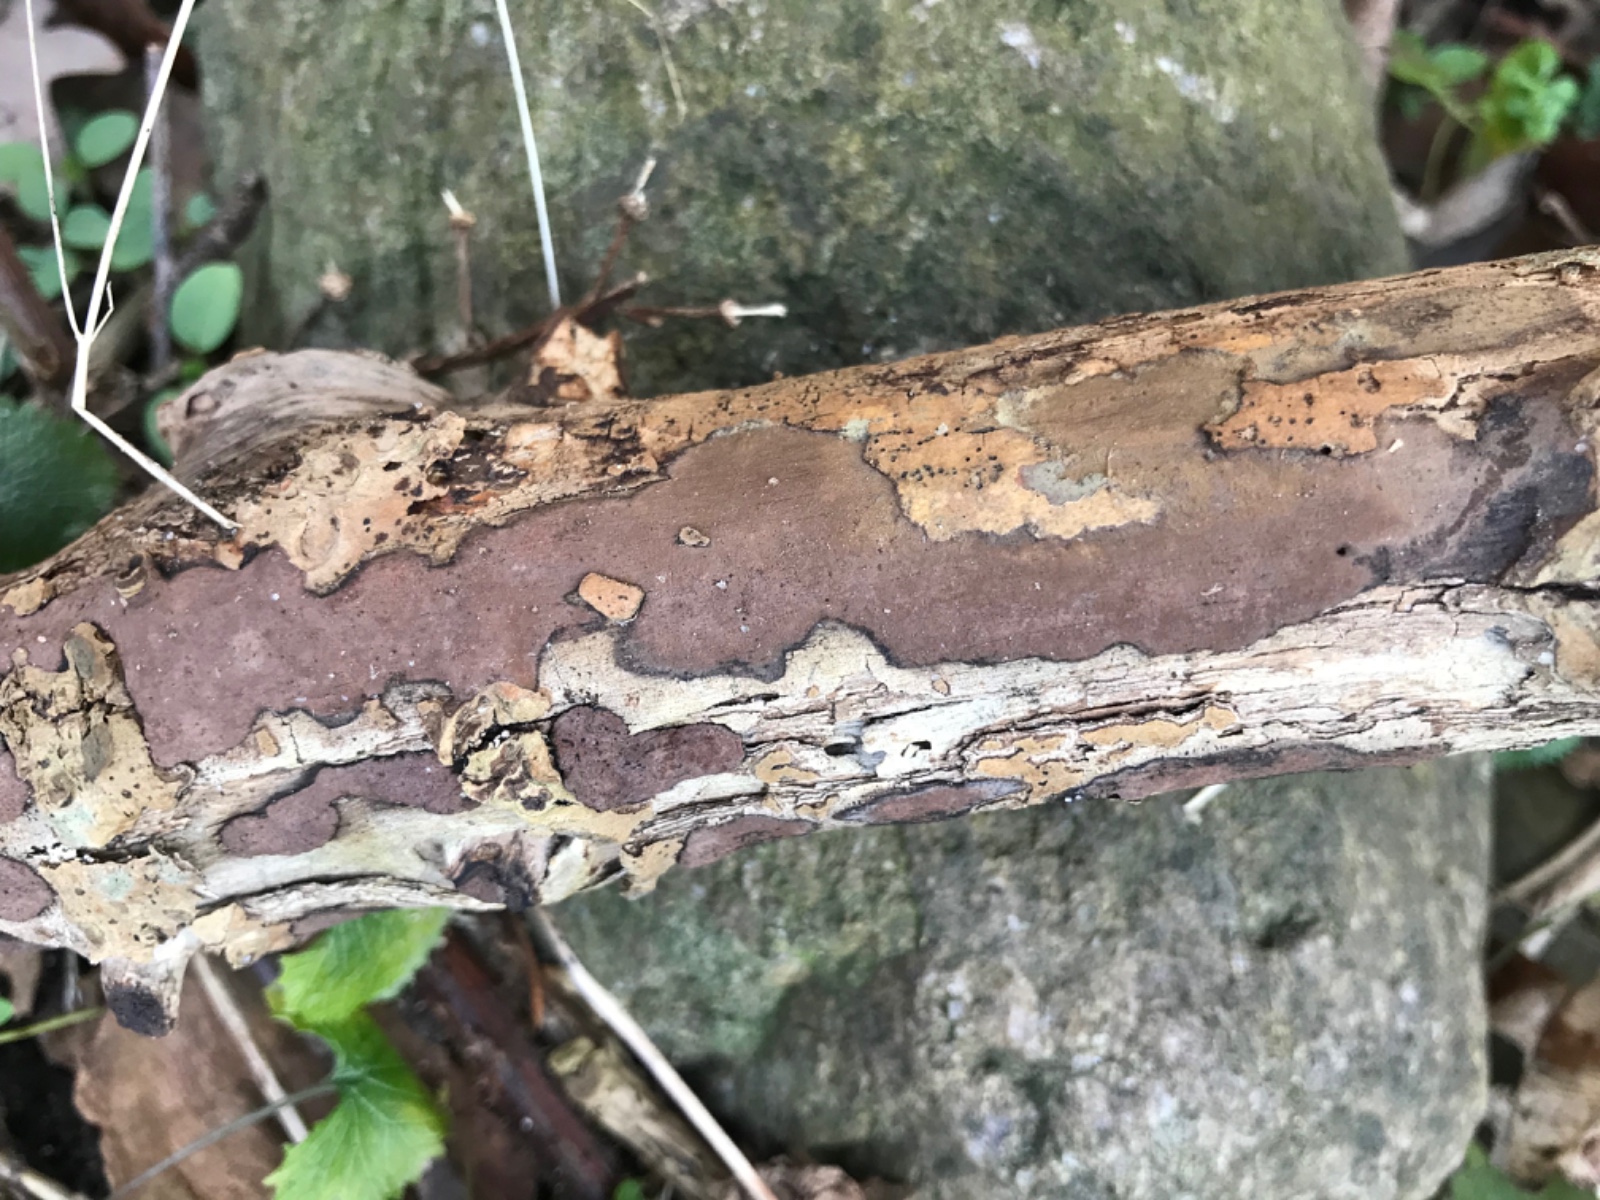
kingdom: Fungi
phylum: Ascomycota
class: Sordariomycetes
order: Xylariales
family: Hypoxylaceae
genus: Hypoxylon
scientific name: Hypoxylon petriniae
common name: nedsænket kulbær
